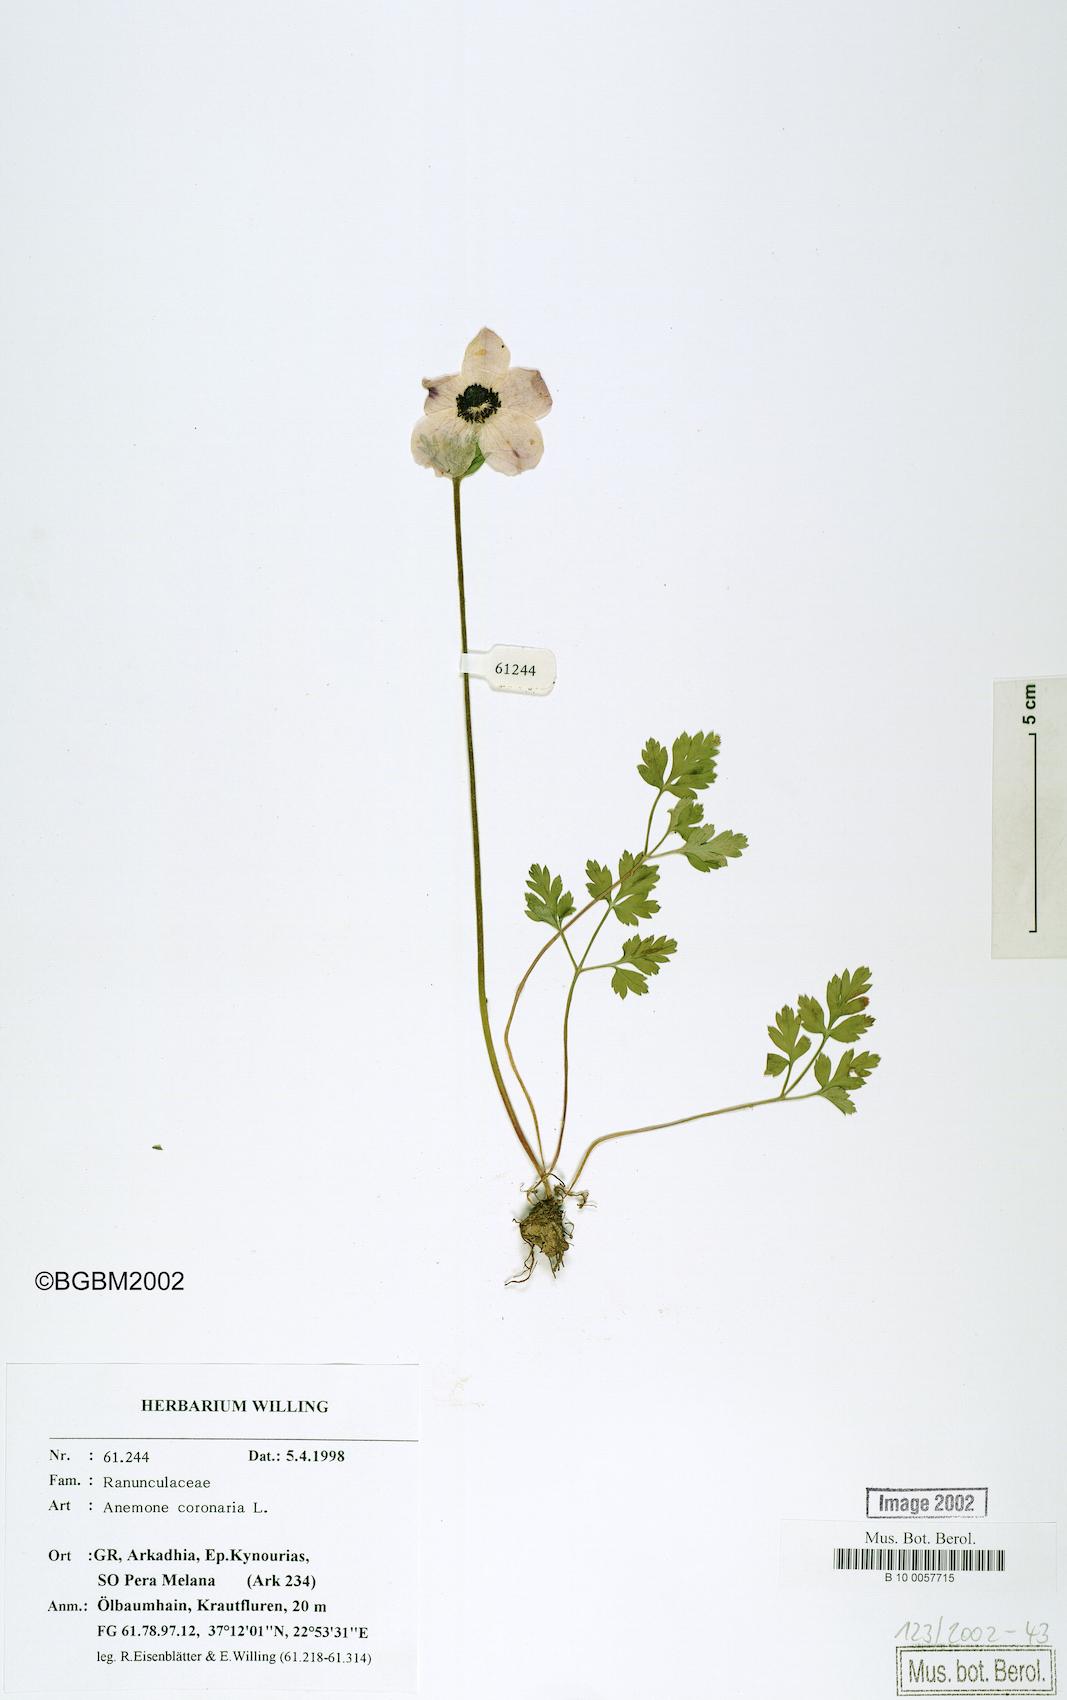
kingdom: Plantae
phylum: Tracheophyta
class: Magnoliopsida
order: Ranunculales
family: Ranunculaceae
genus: Anemone
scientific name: Anemone coronaria
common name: Poppy anemone
